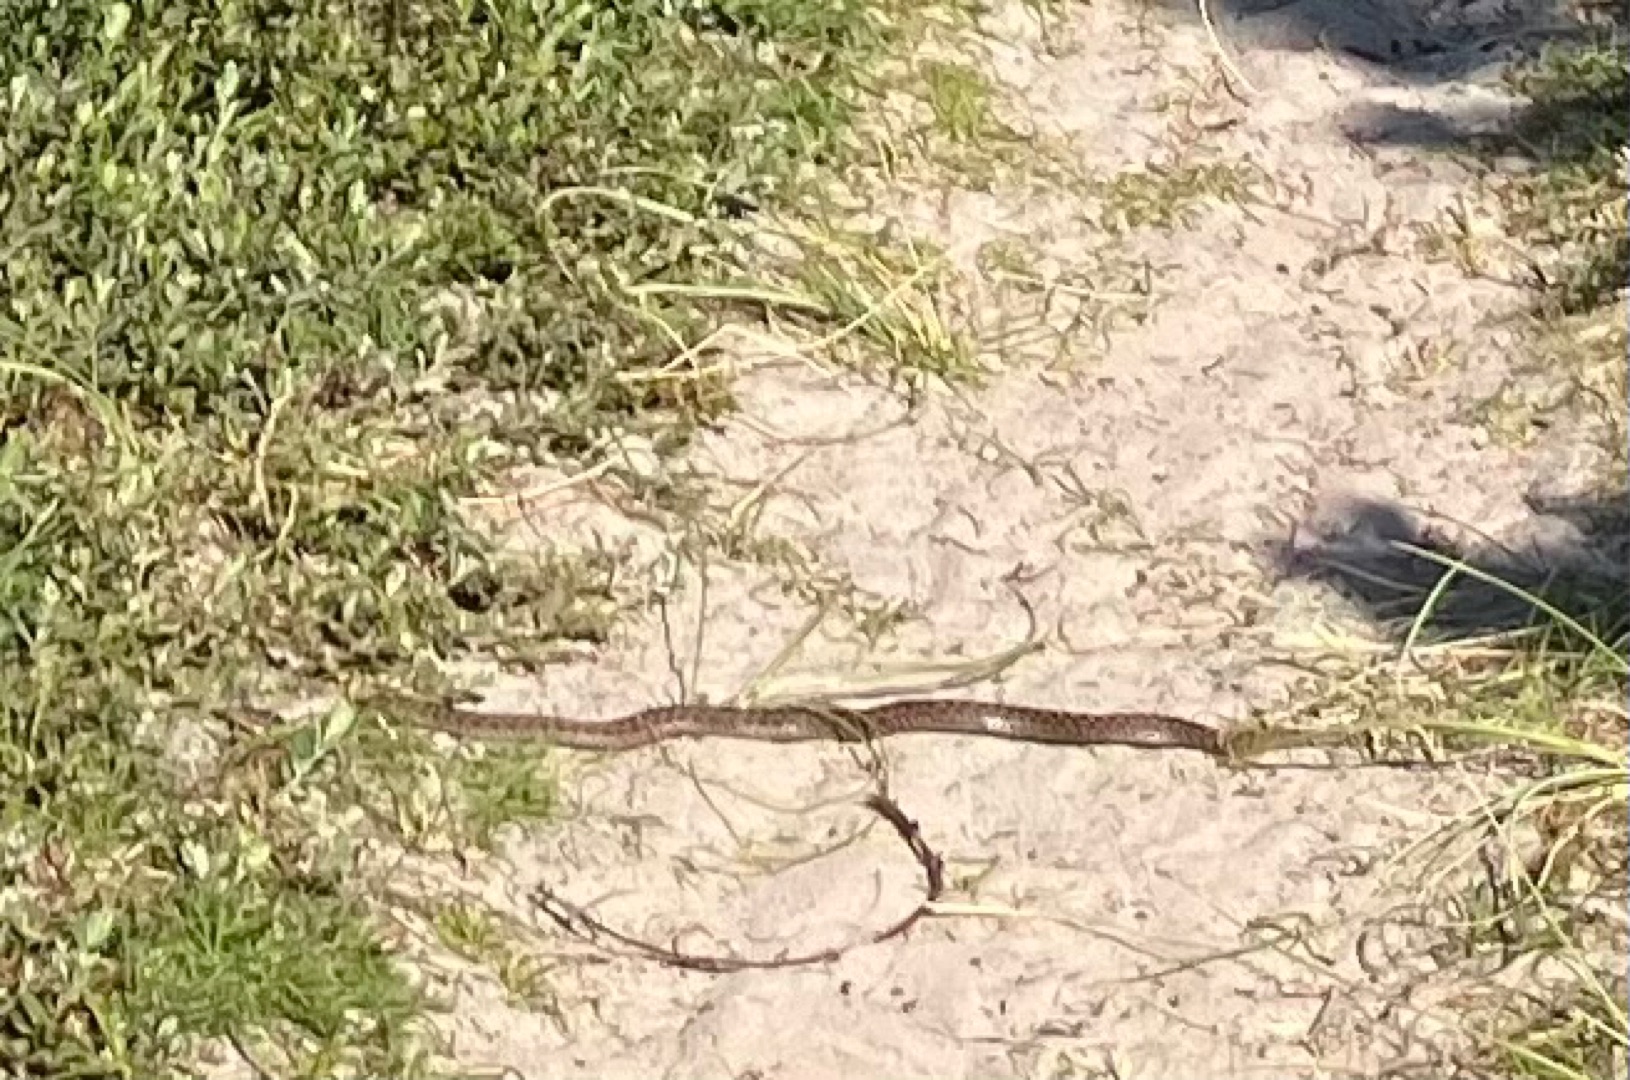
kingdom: Animalia
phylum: Chordata
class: Squamata
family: Viperidae
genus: Vipera
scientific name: Vipera berus
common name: Hugorm
